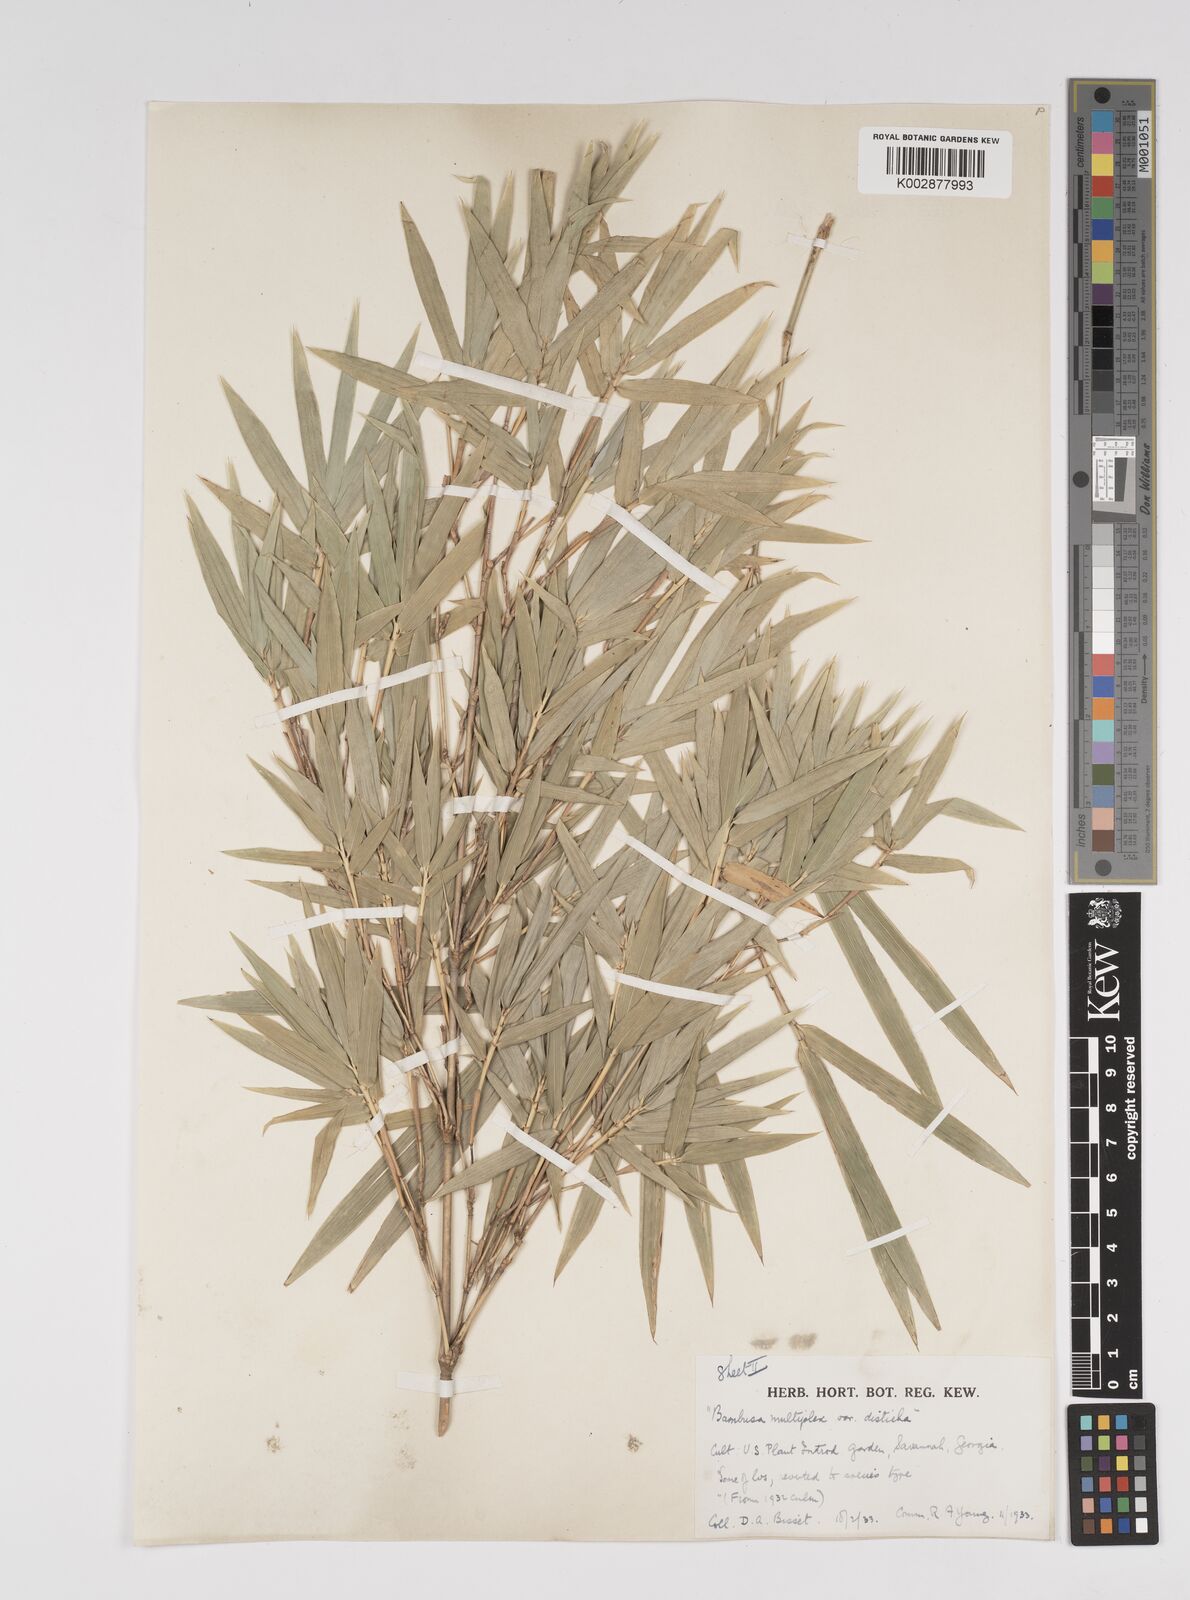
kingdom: Plantae
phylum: Tracheophyta
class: Liliopsida
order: Poales
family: Poaceae
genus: Bambusa
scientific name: Bambusa
